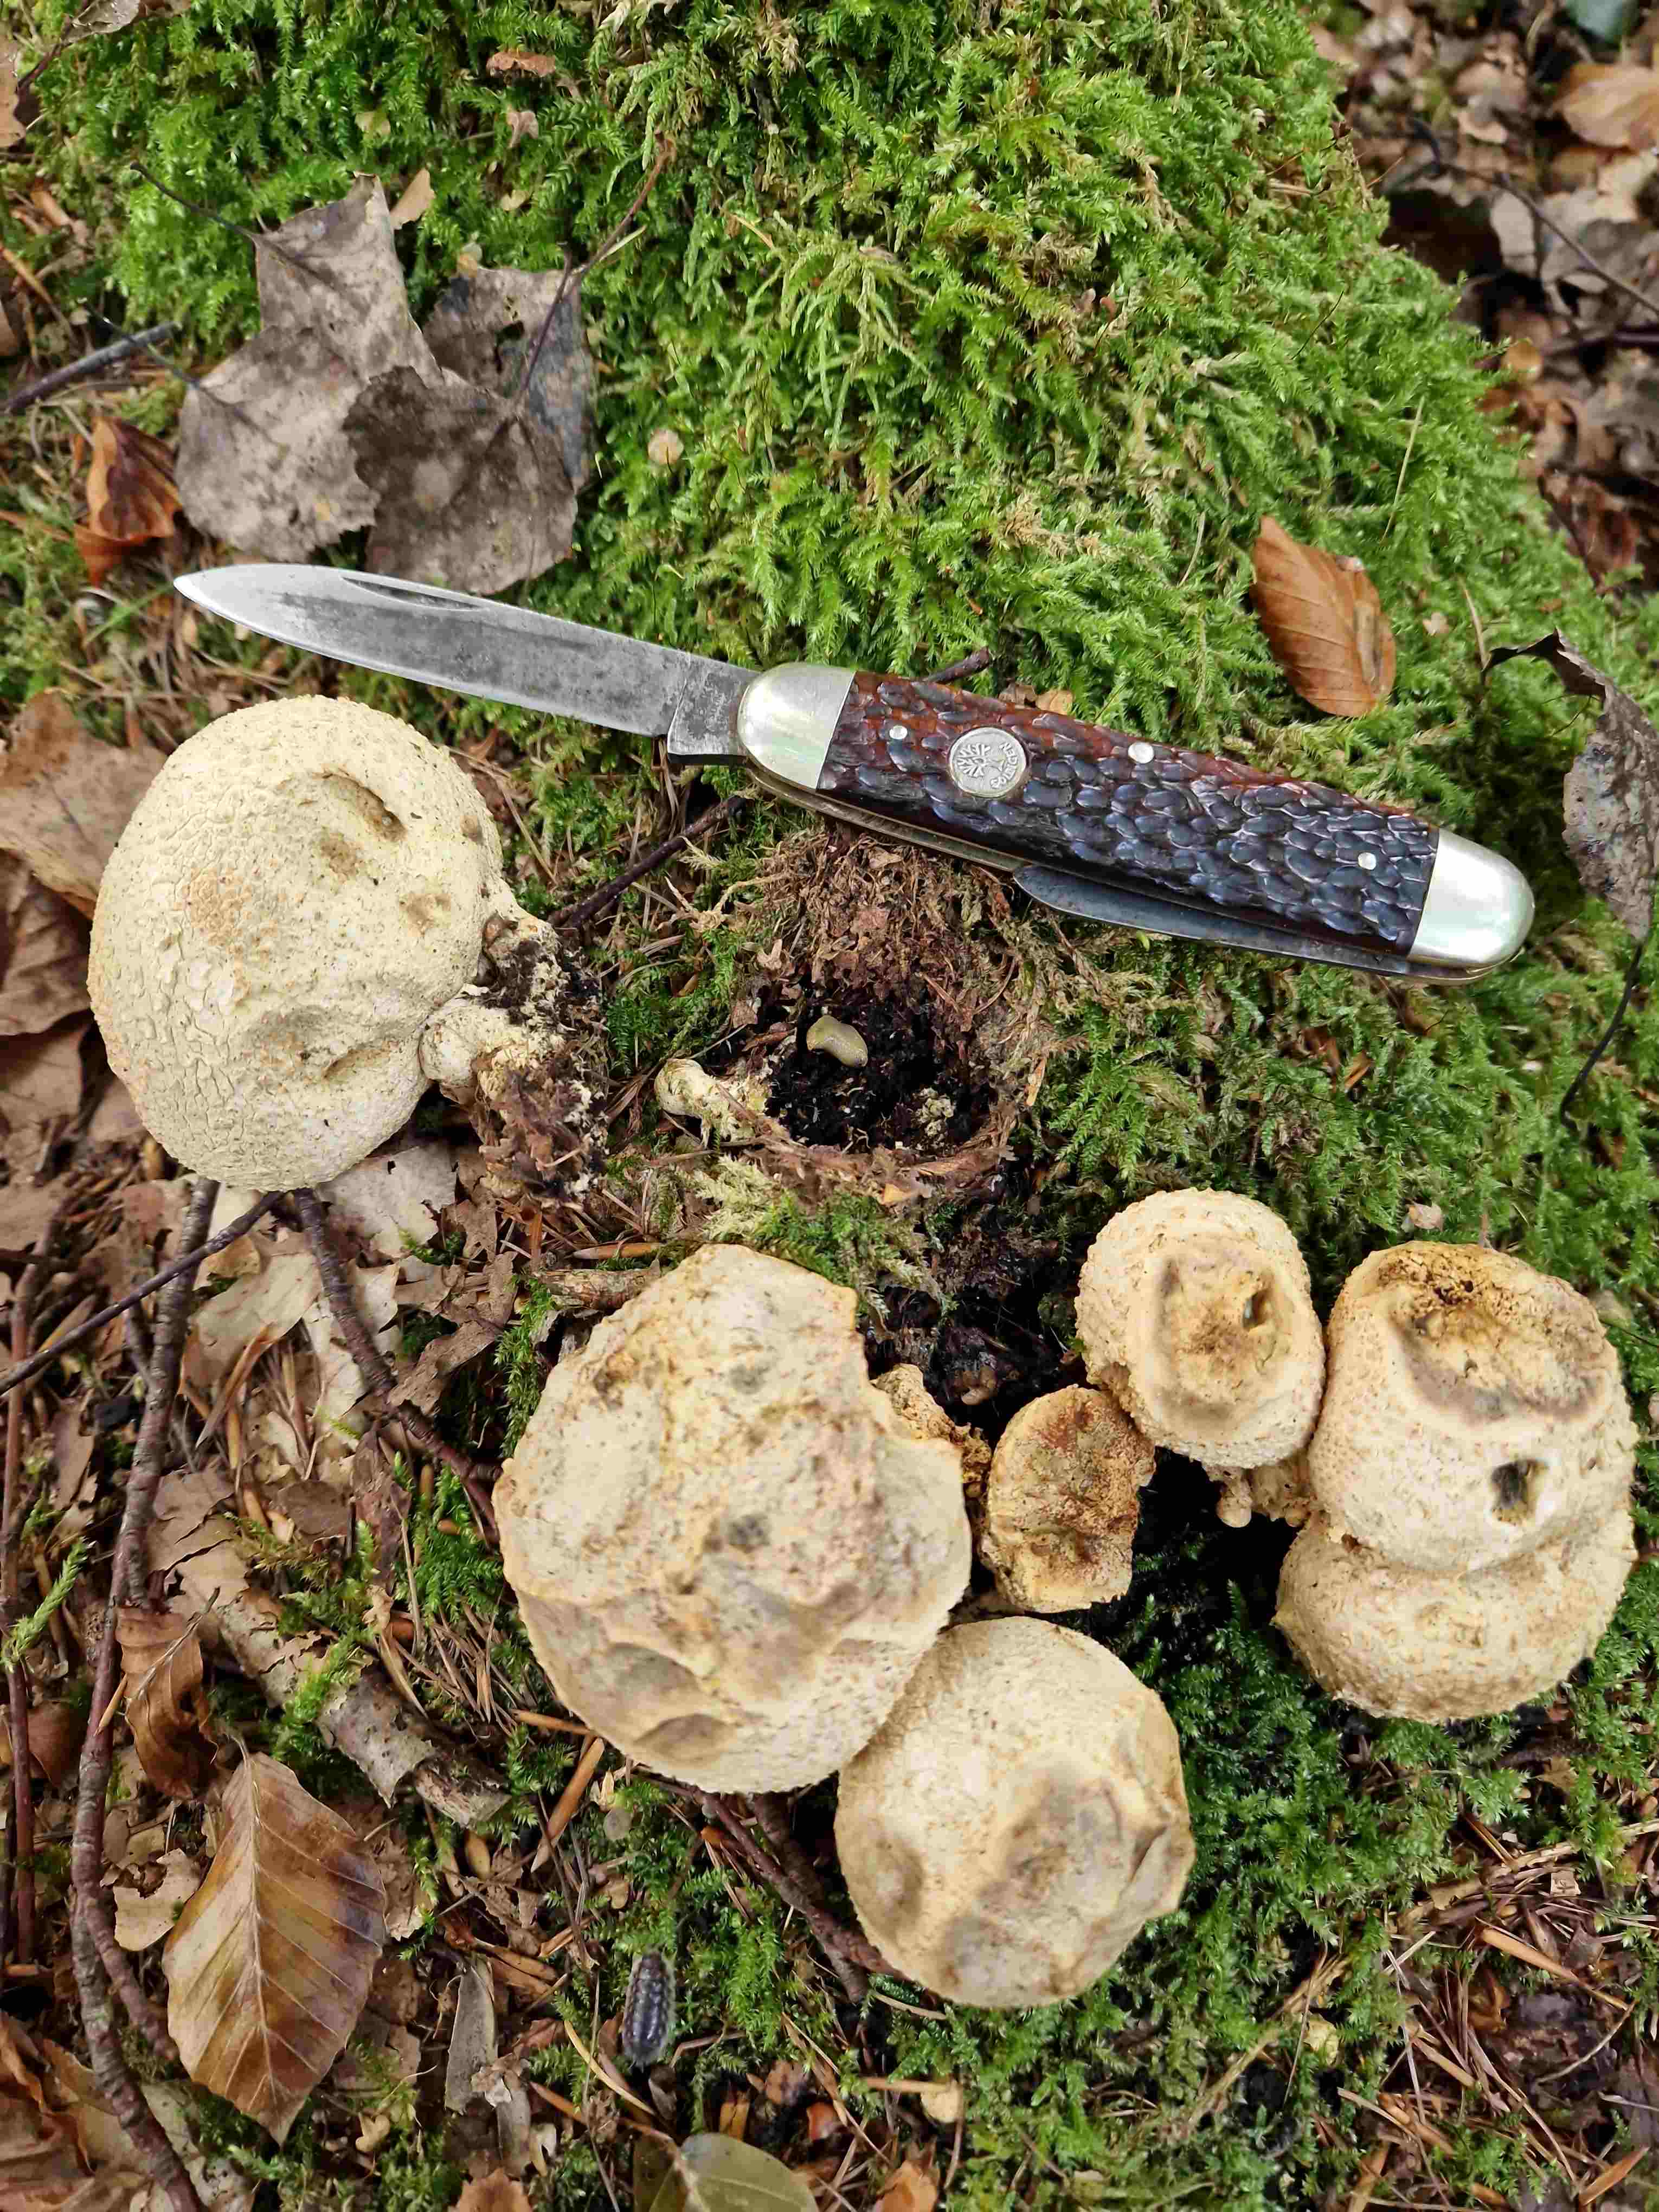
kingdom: Fungi
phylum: Basidiomycota
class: Agaricomycetes
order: Boletales
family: Sclerodermataceae
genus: Scleroderma
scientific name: Scleroderma citrinum
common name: almindelig bruskbold
